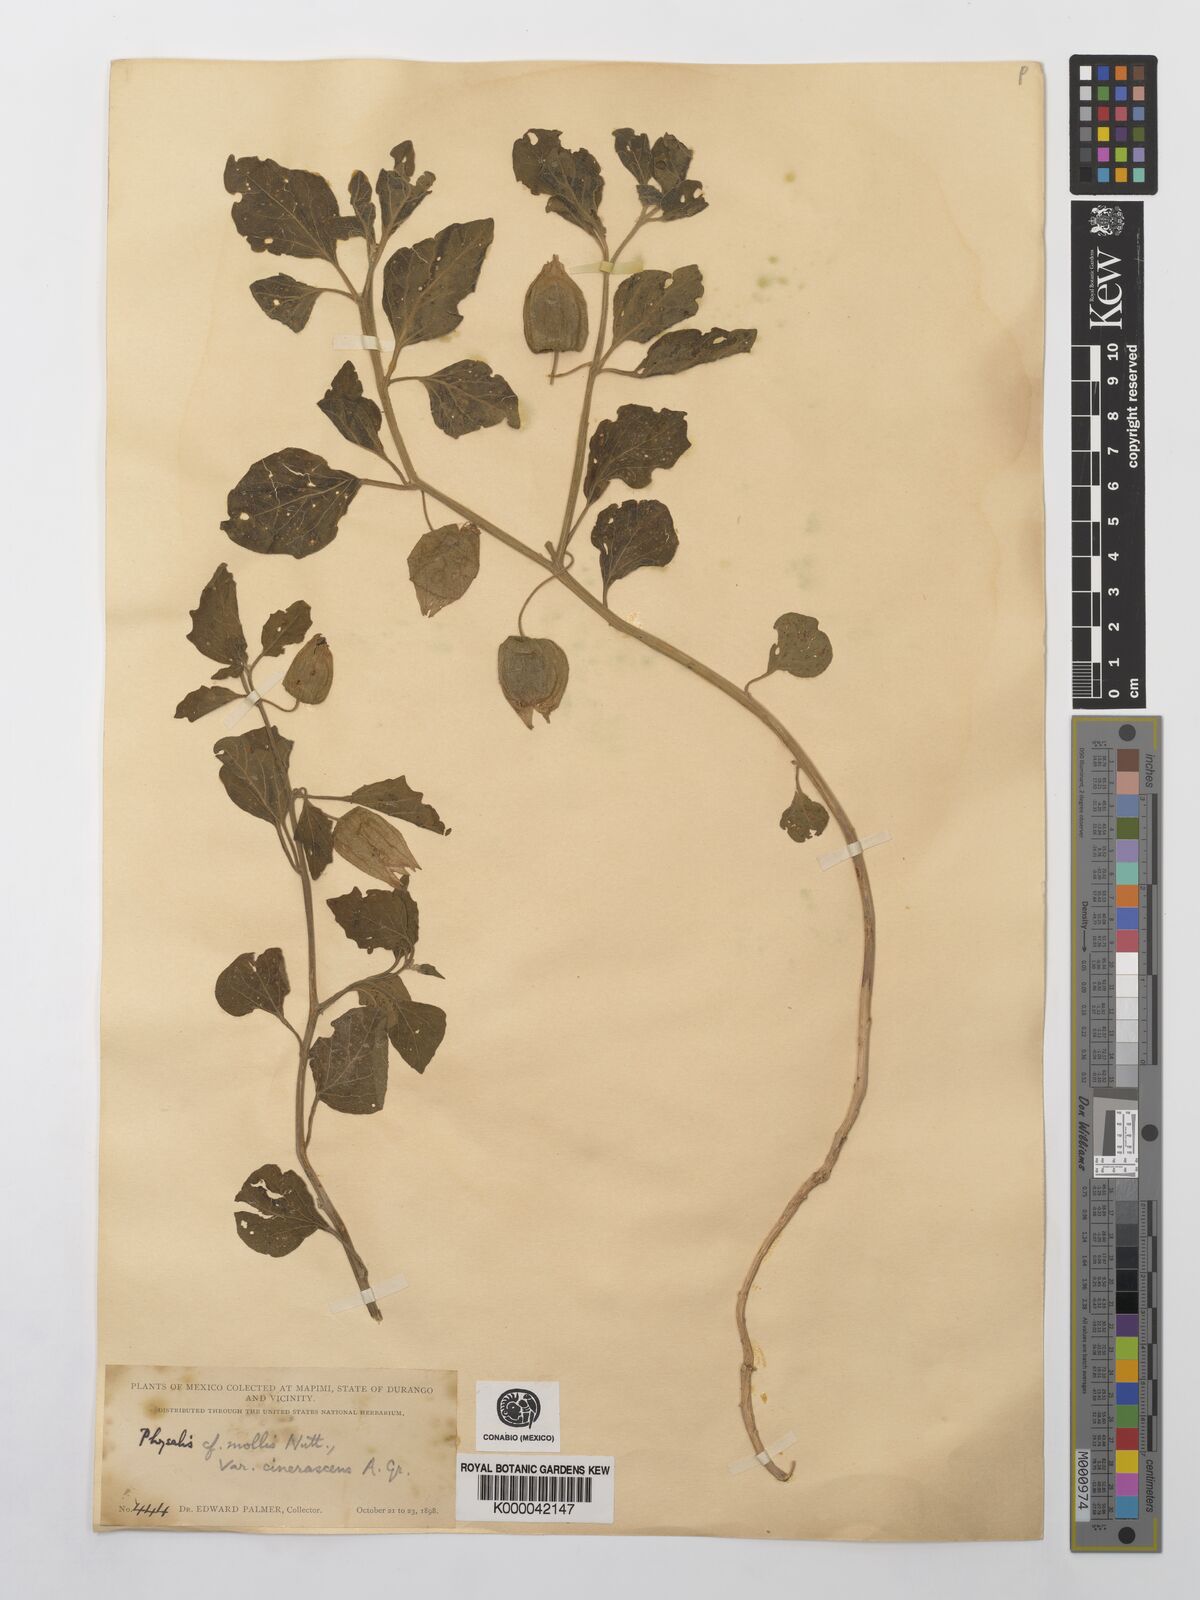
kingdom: Plantae
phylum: Tracheophyta
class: Magnoliopsida
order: Solanales
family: Solanaceae
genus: Physalis
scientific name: Physalis cinerascens
